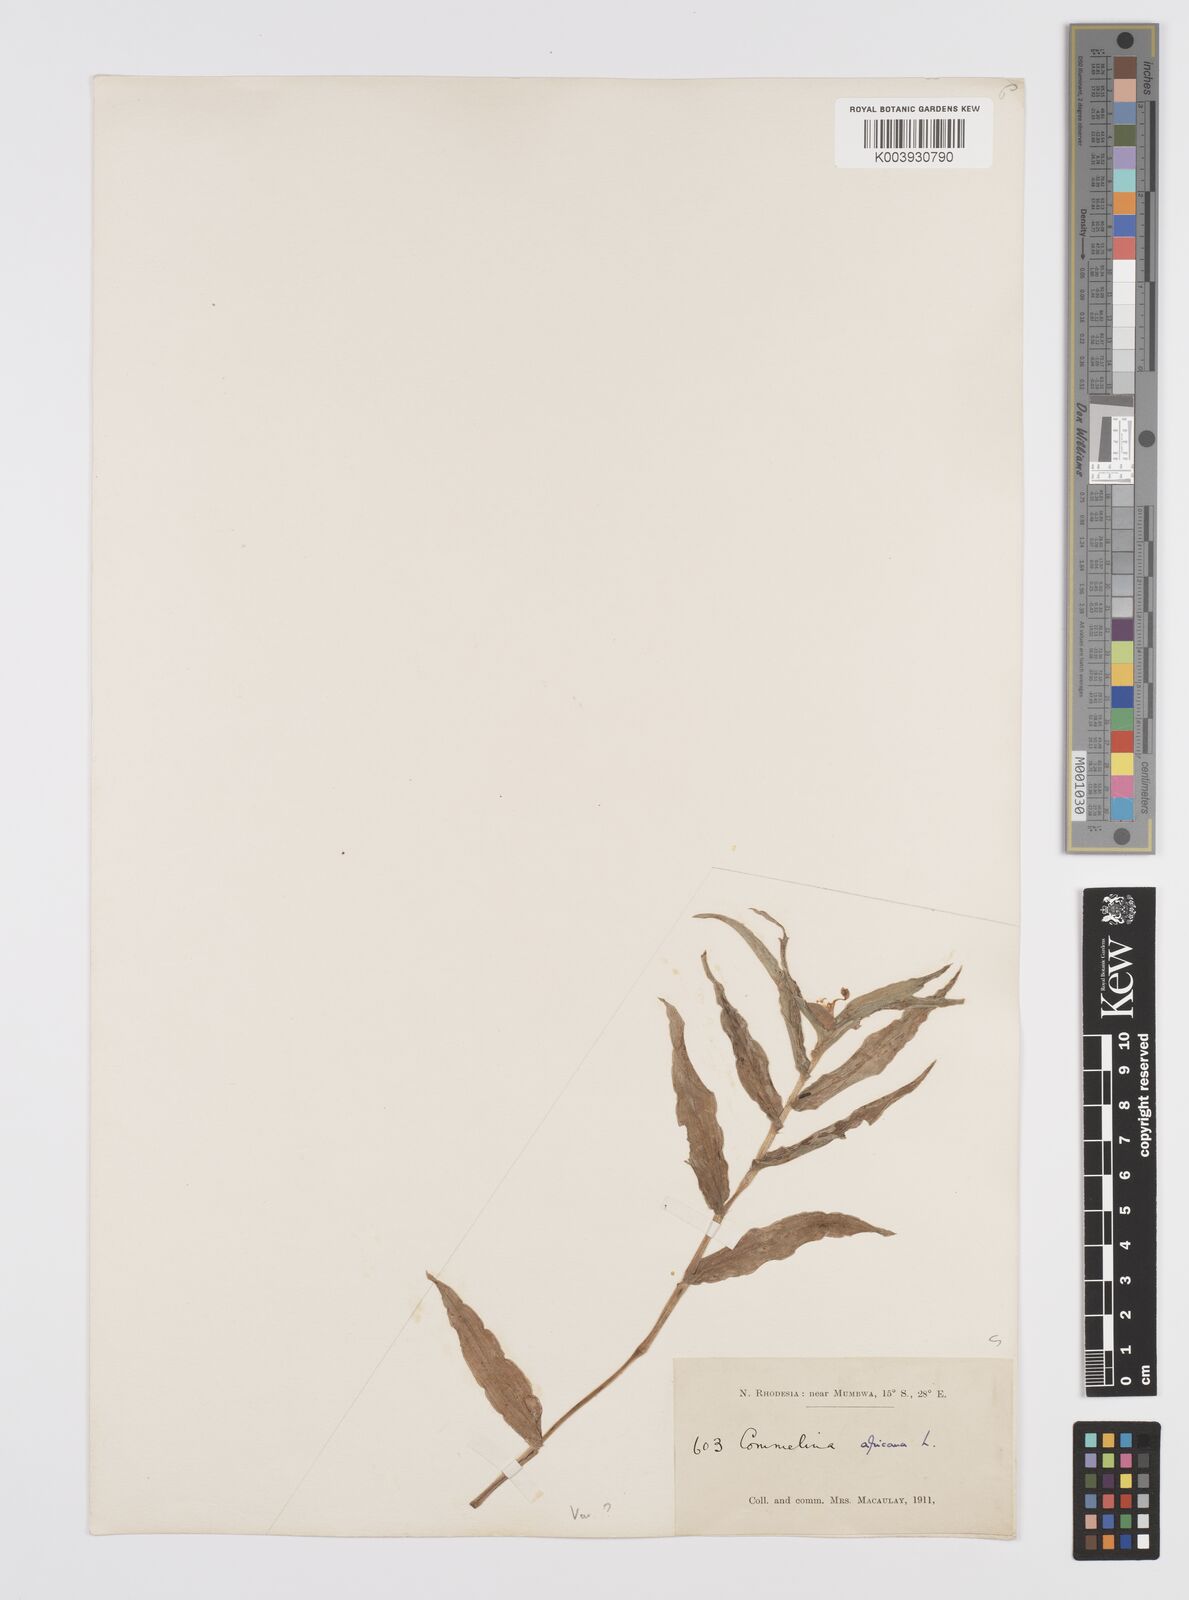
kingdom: Plantae
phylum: Tracheophyta
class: Liliopsida
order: Commelinales
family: Commelinaceae
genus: Commelina
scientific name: Commelina africana
